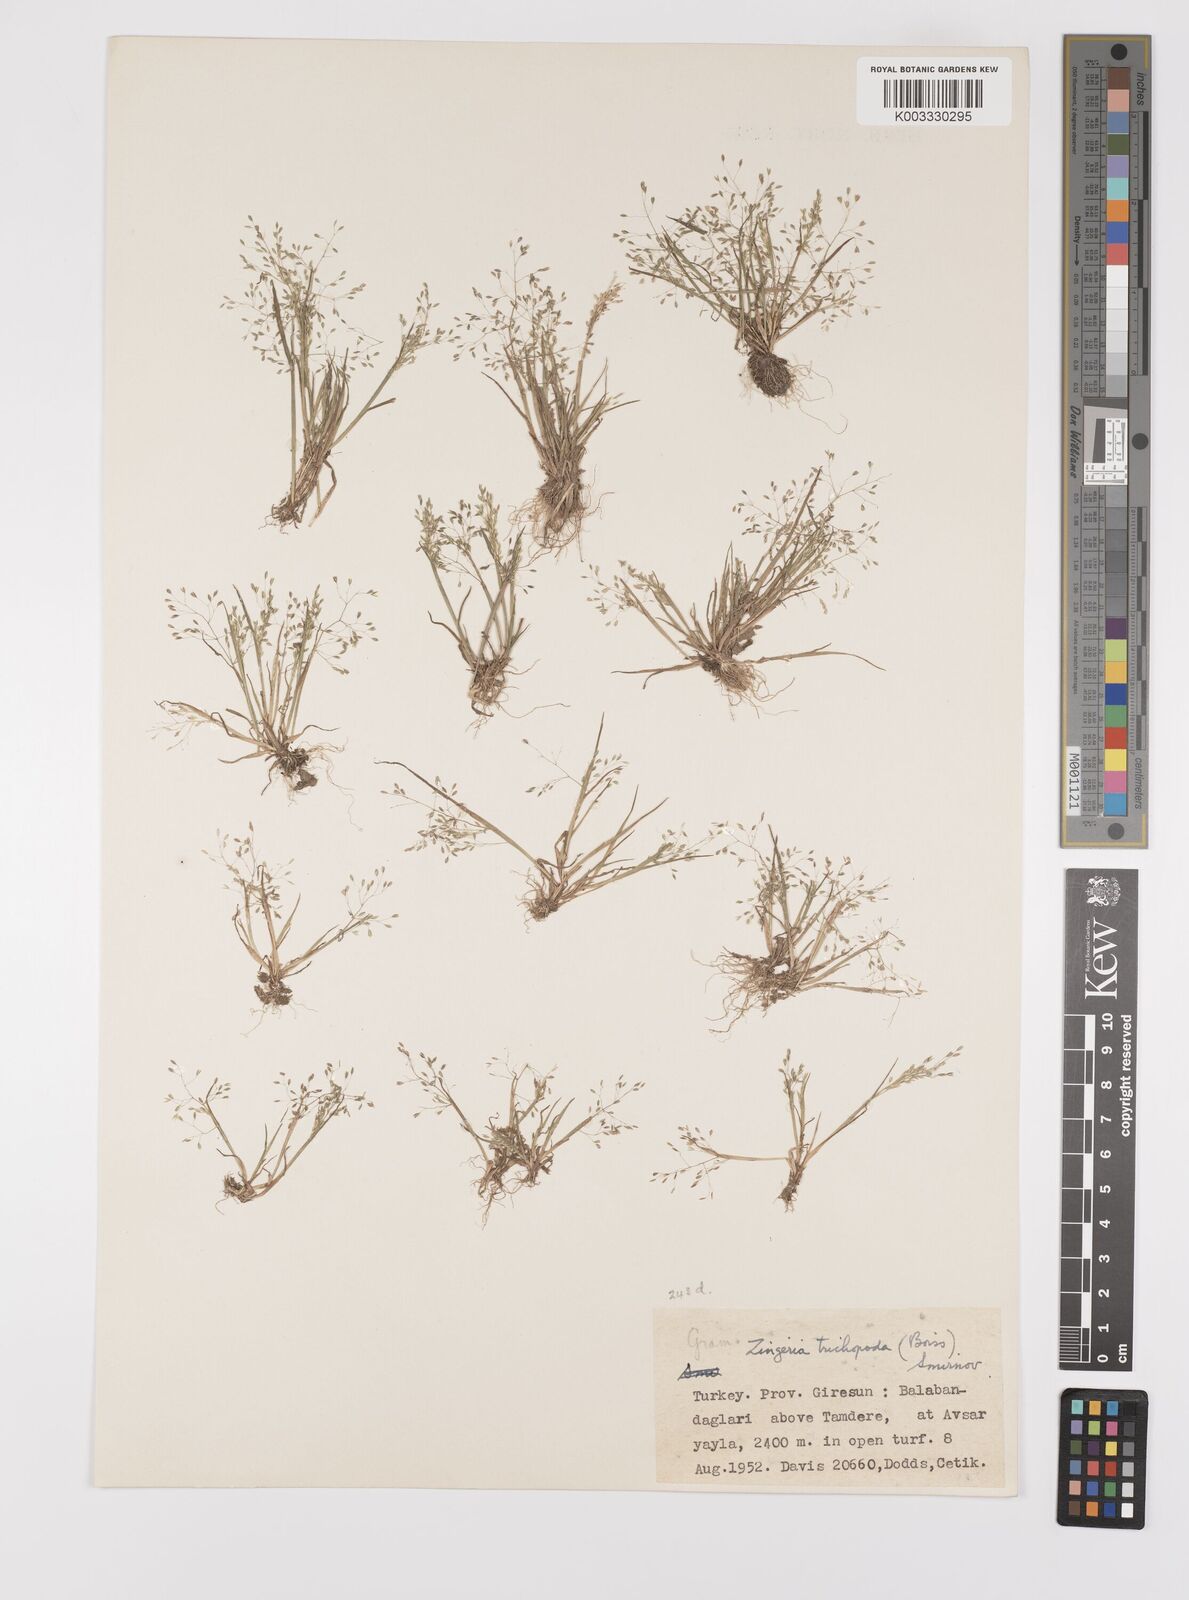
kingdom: Plantae
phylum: Tracheophyta
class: Liliopsida
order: Poales
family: Poaceae
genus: Colpodium
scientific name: Colpodium trichopodum
